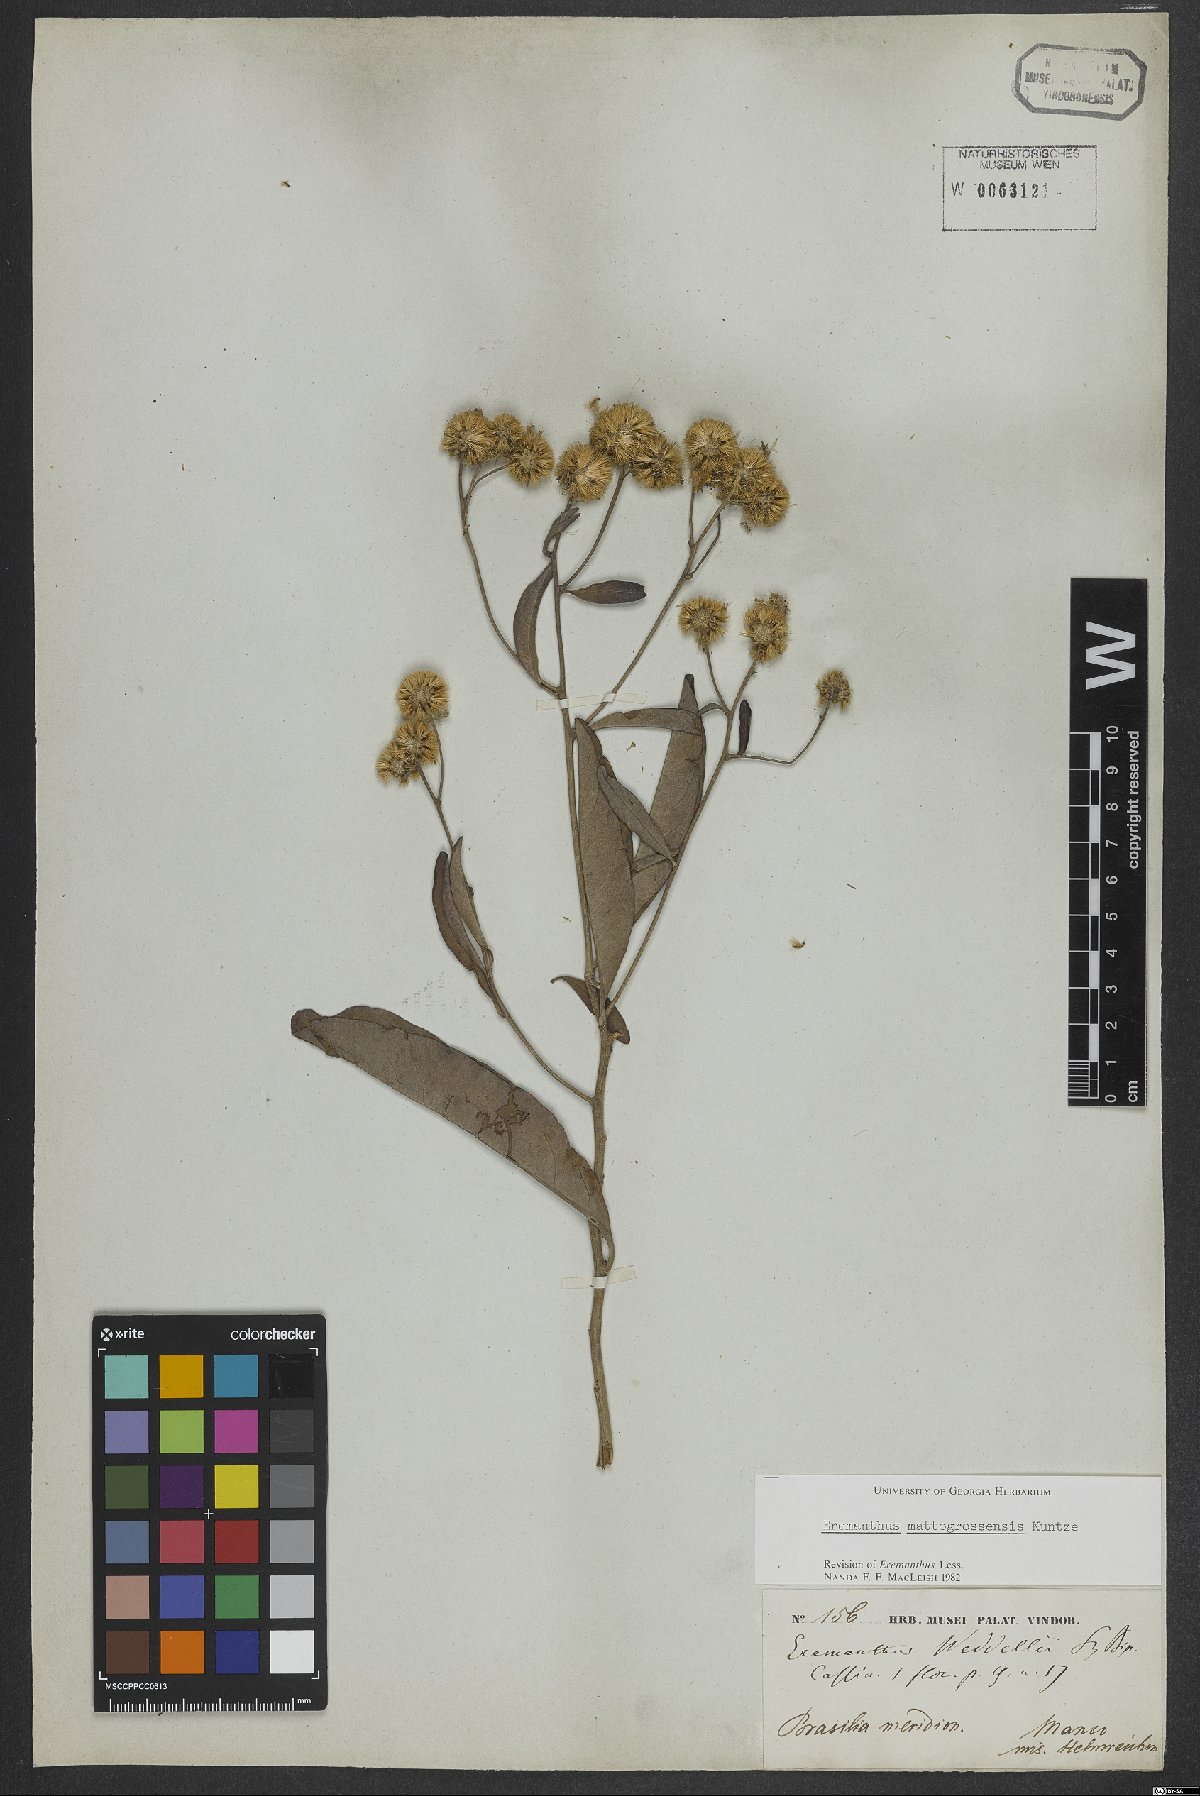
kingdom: Plantae
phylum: Tracheophyta
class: Magnoliopsida
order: Asterales
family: Asteraceae
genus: Eremanthus
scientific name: Eremanthus mattogrossensis
